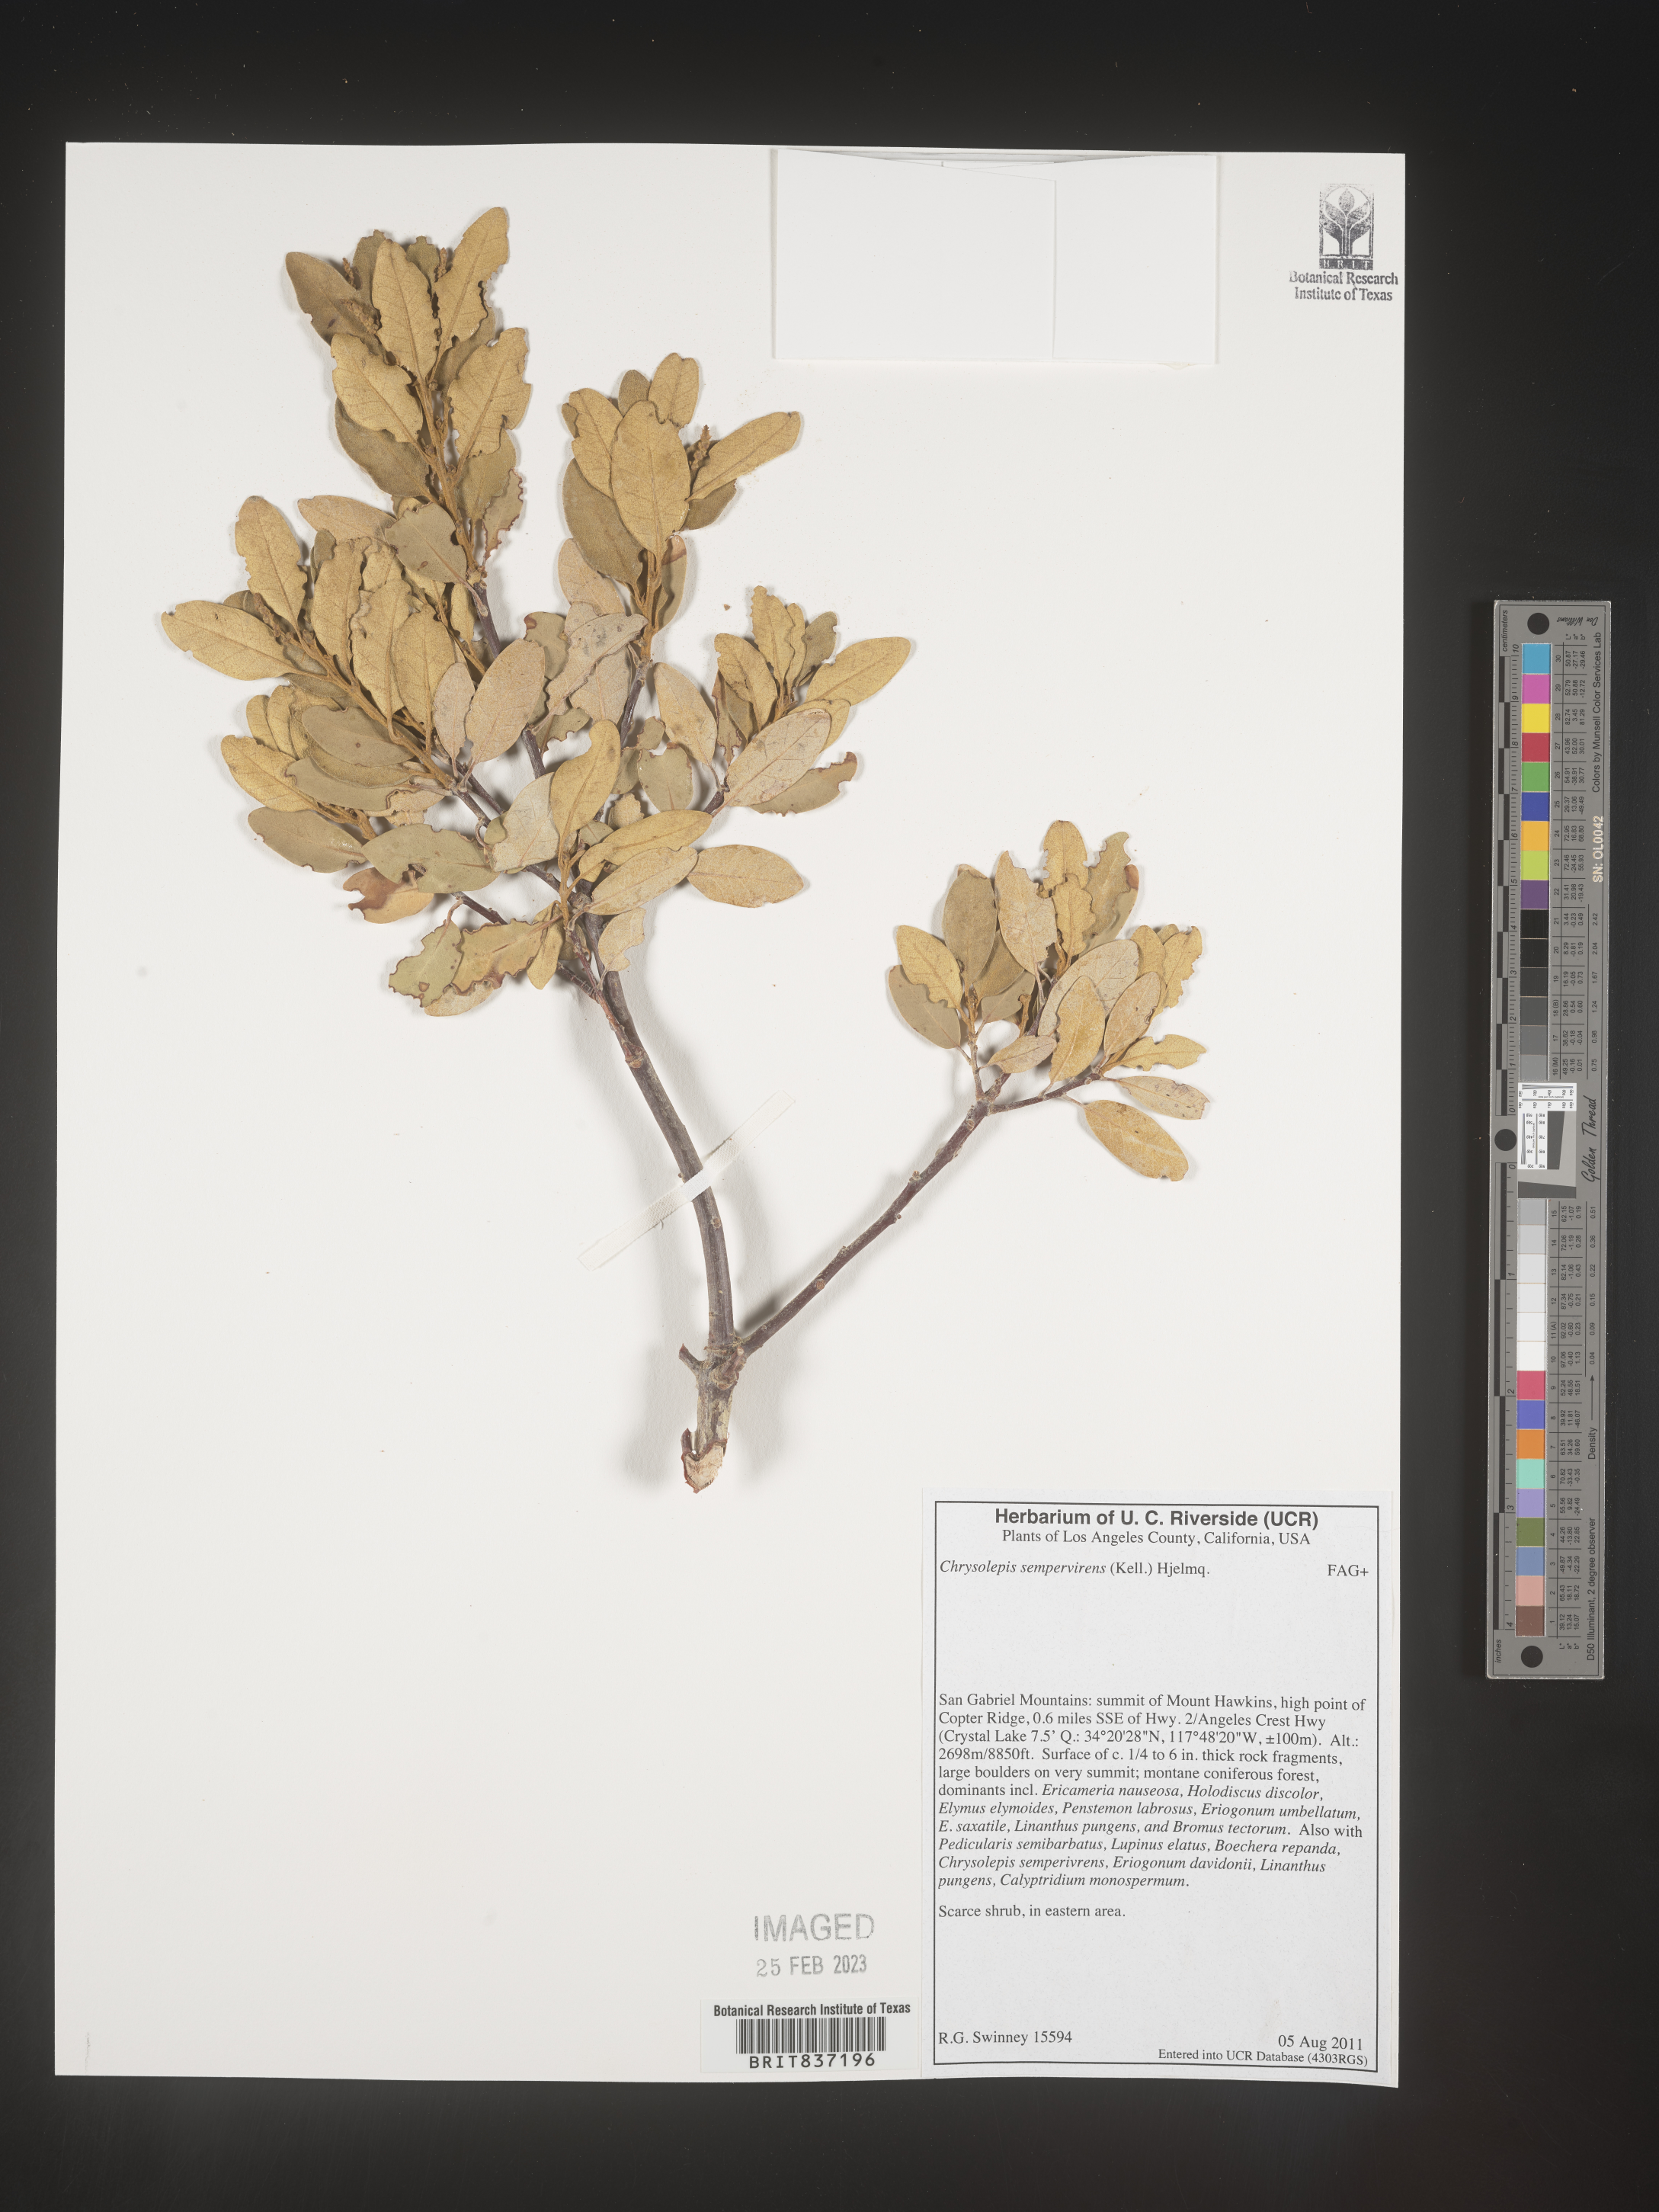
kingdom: Plantae
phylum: Tracheophyta
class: Magnoliopsida
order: Fagales
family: Fagaceae
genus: Chrysolepis
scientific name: Chrysolepis
